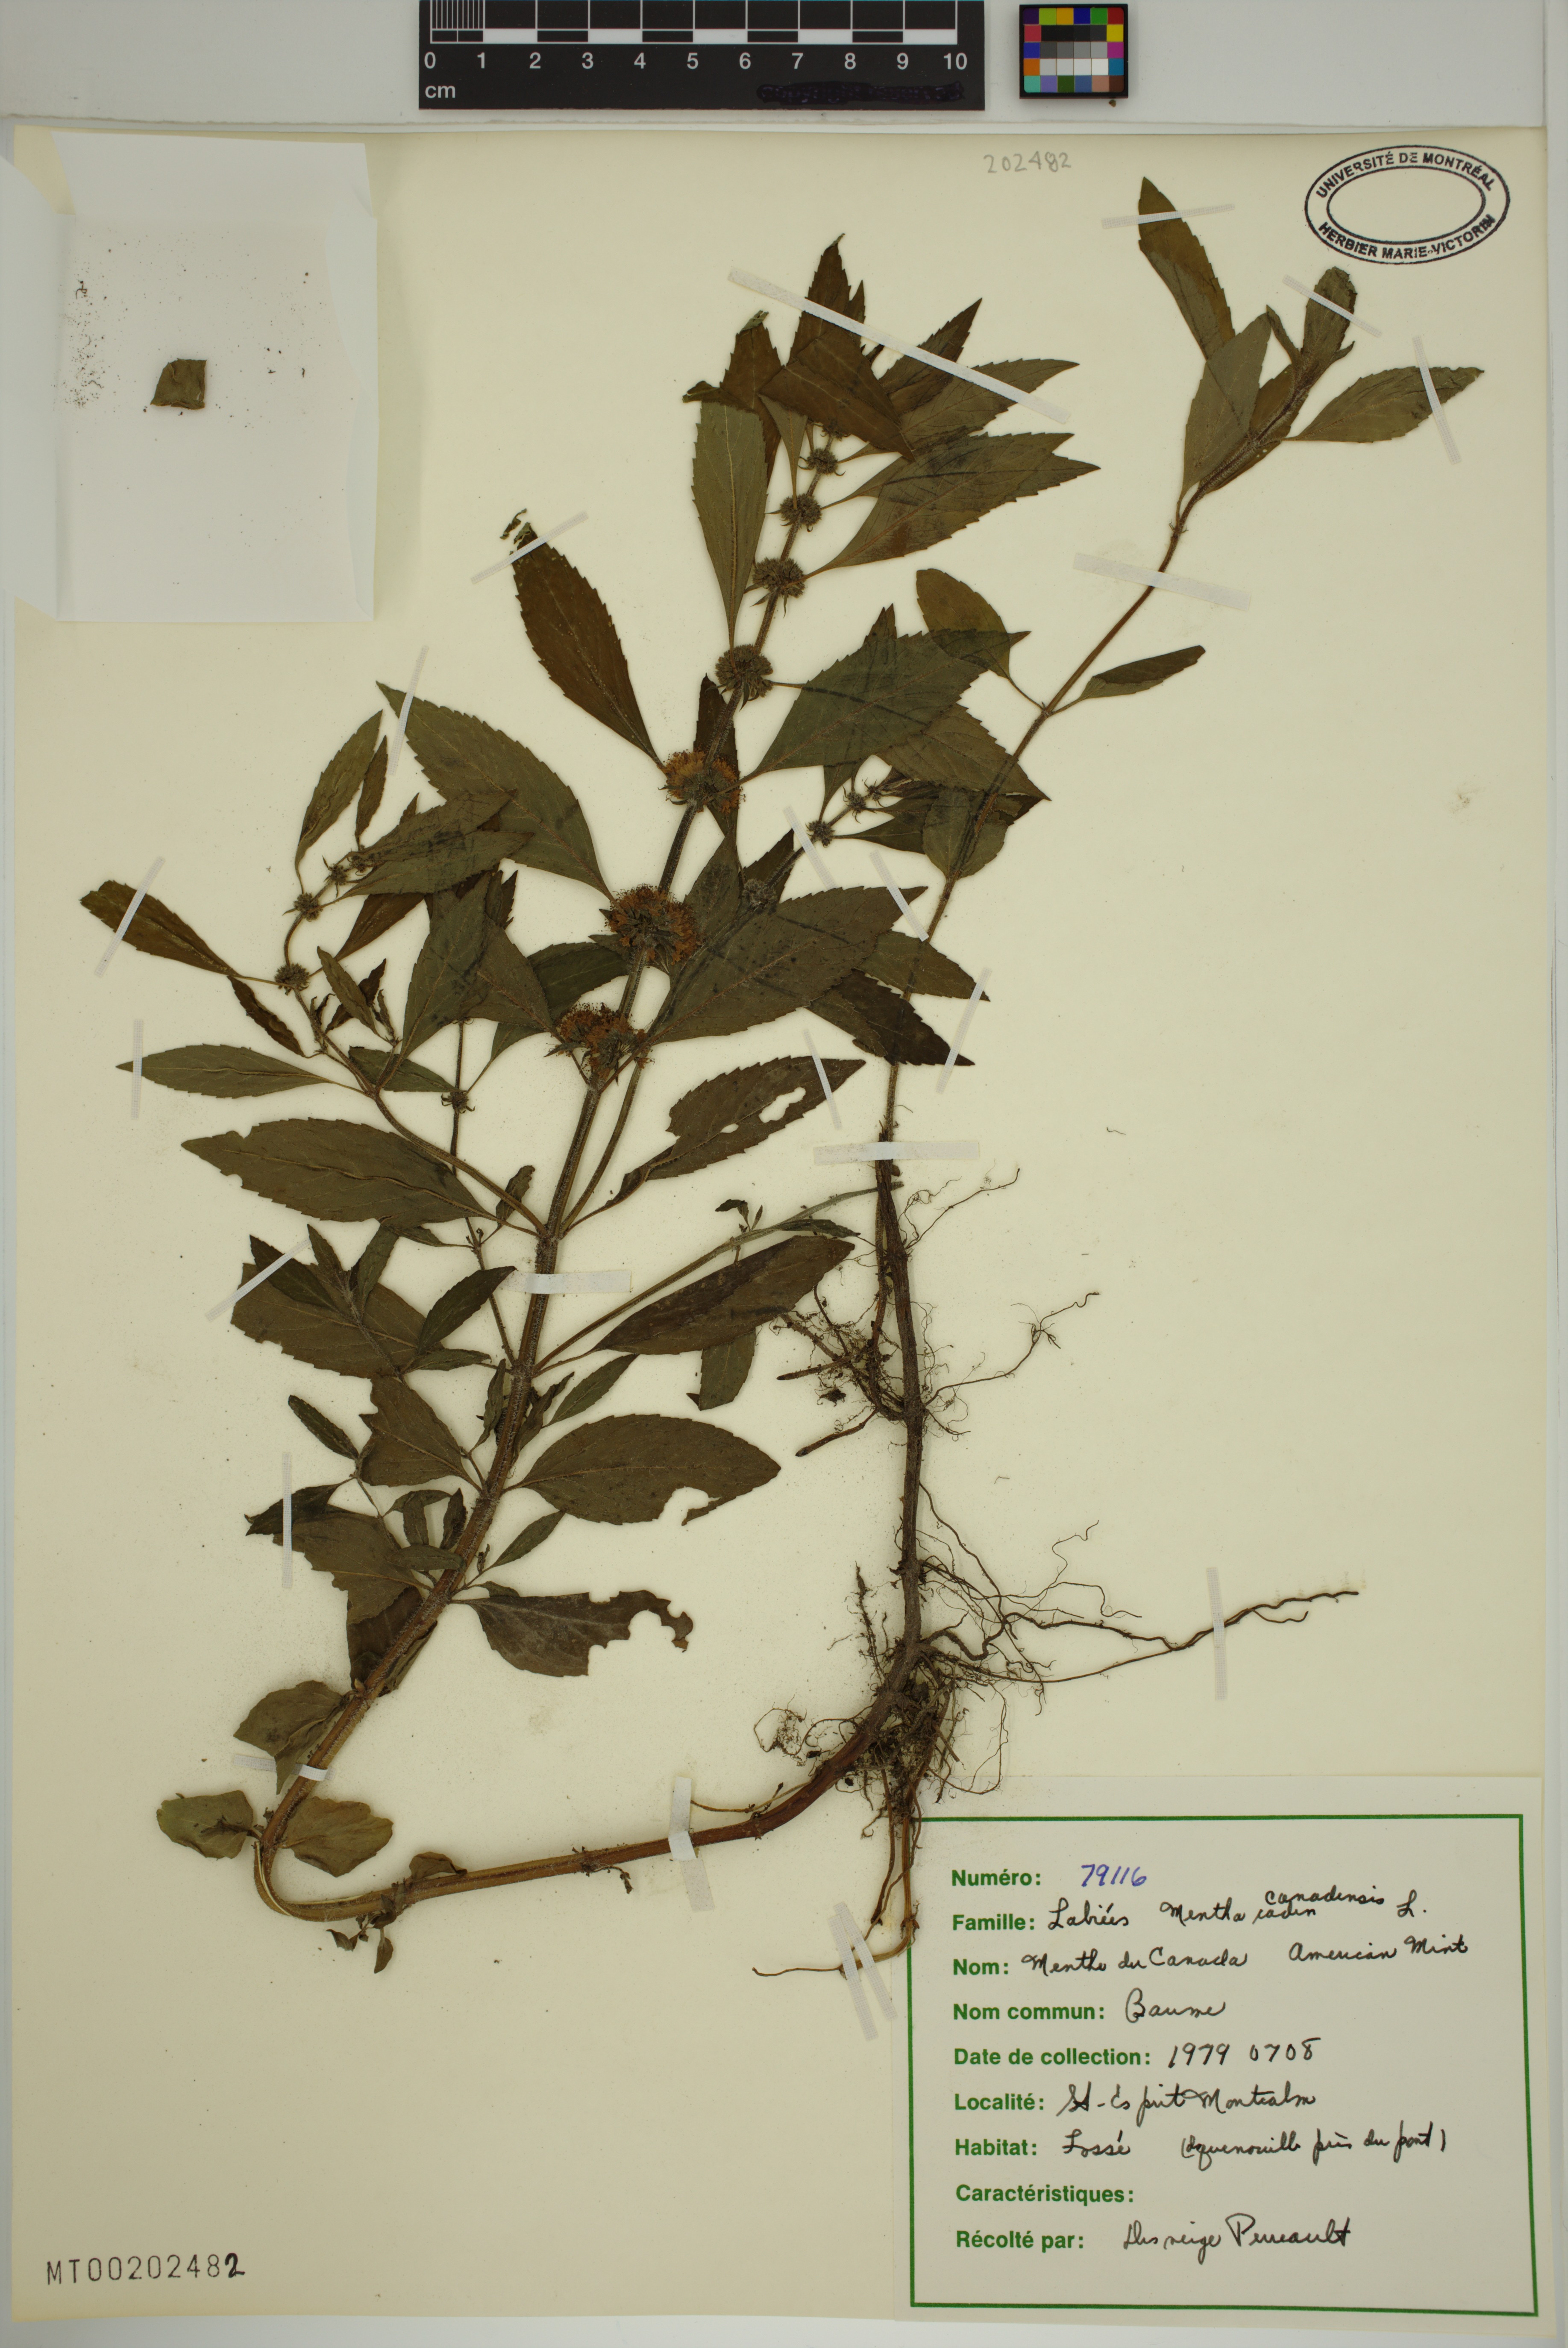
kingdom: Plantae
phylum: Tracheophyta
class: Magnoliopsida
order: Lamiales
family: Lamiaceae
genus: Mentha
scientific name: Mentha canadensis
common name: American corn mint
